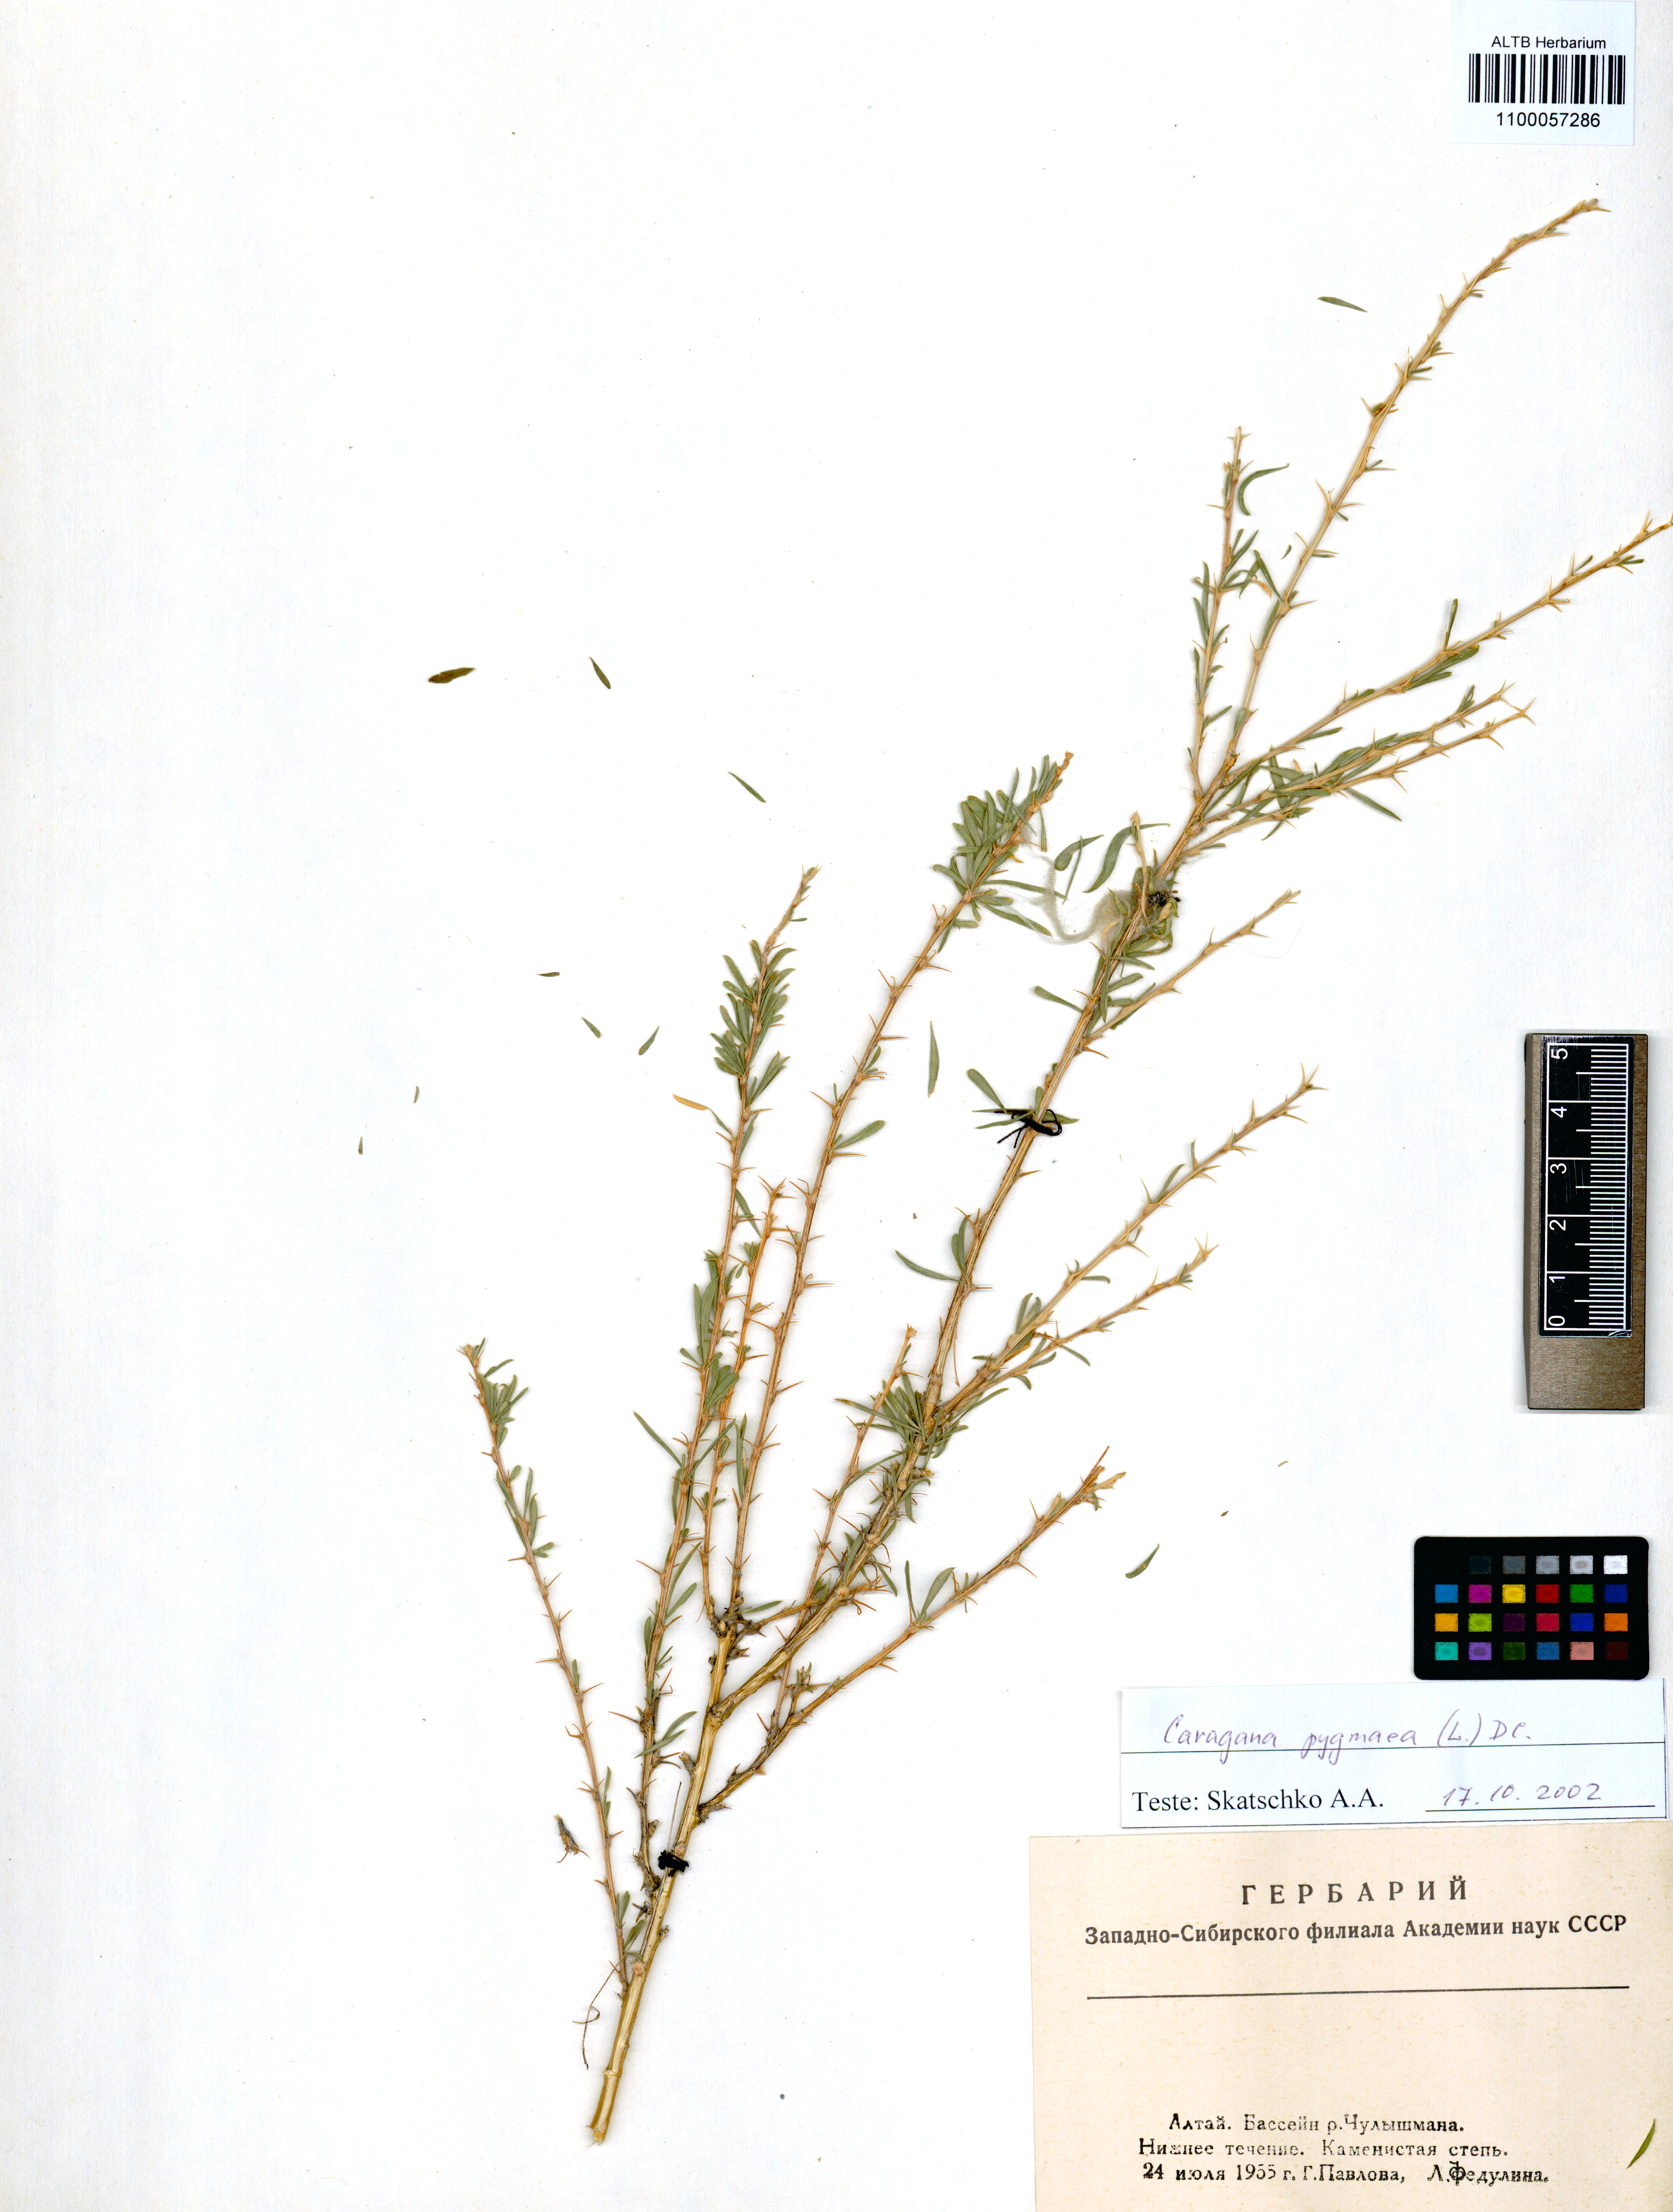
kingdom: Plantae
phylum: Tracheophyta
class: Magnoliopsida
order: Fabales
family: Fabaceae
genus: Caragana
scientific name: Caragana pygmaea
